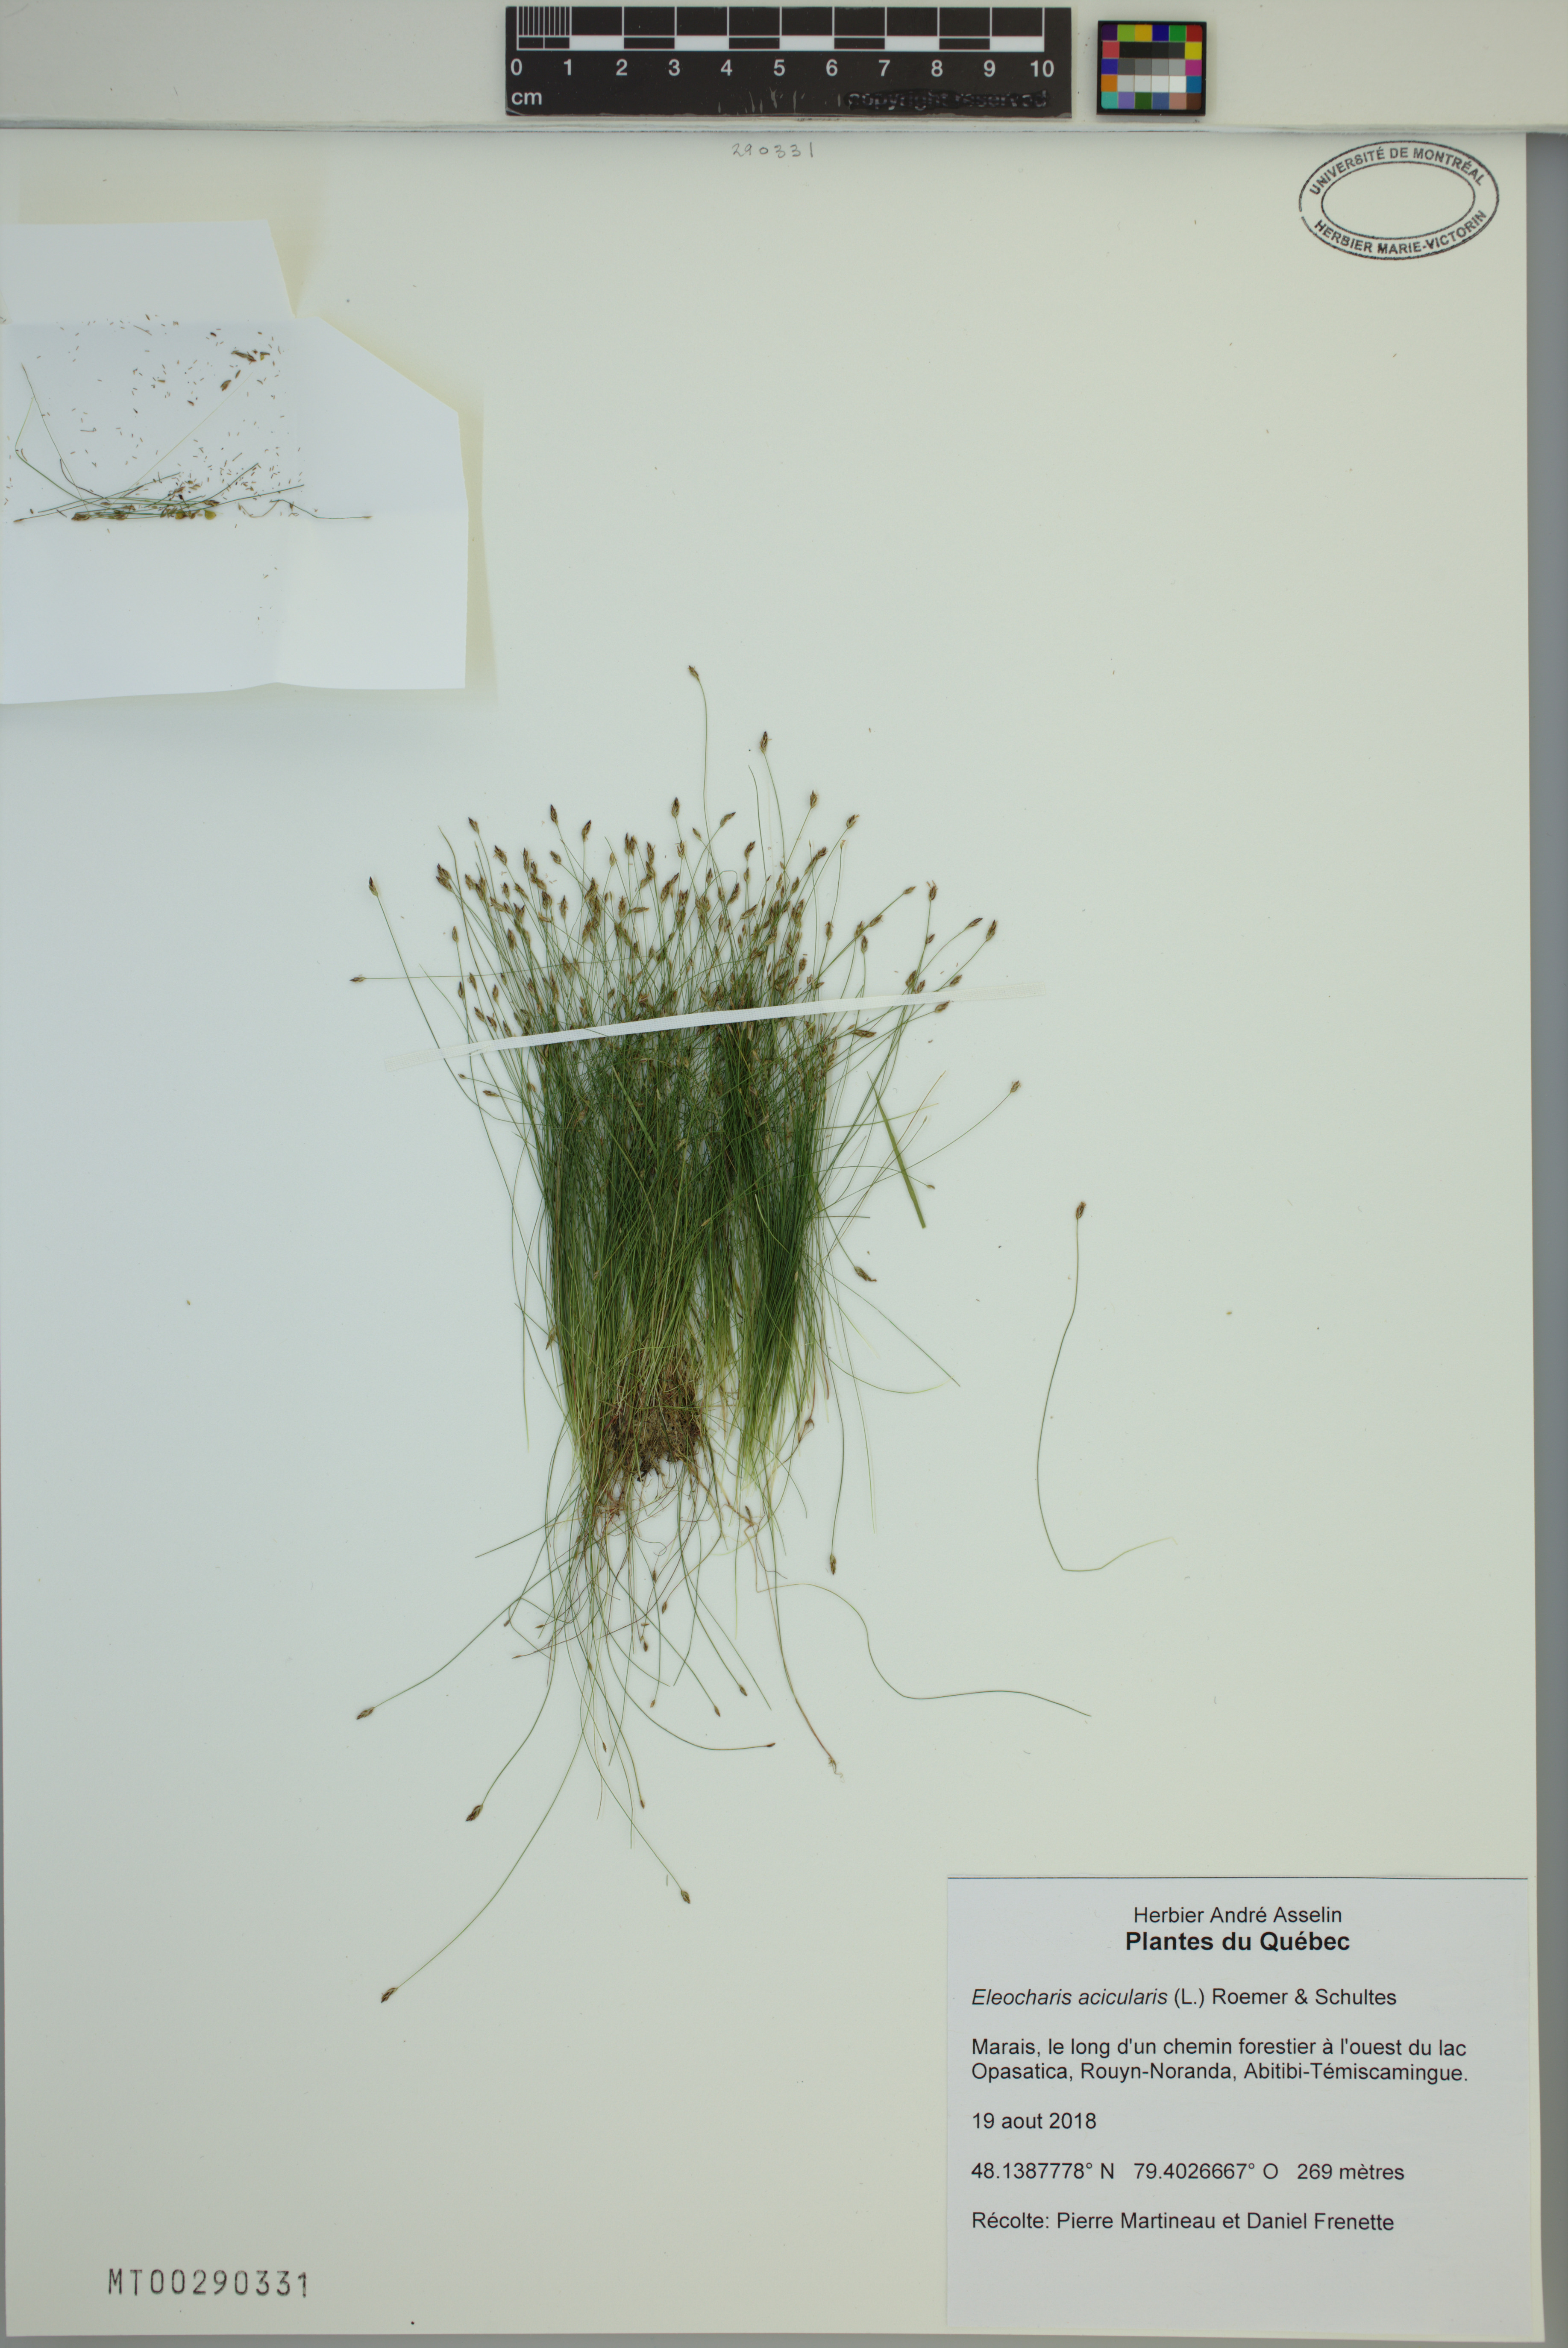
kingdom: Plantae
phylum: Tracheophyta
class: Liliopsida
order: Poales
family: Cyperaceae
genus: Eleocharis
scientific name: Eleocharis acicularis
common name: Needle spike-rush
